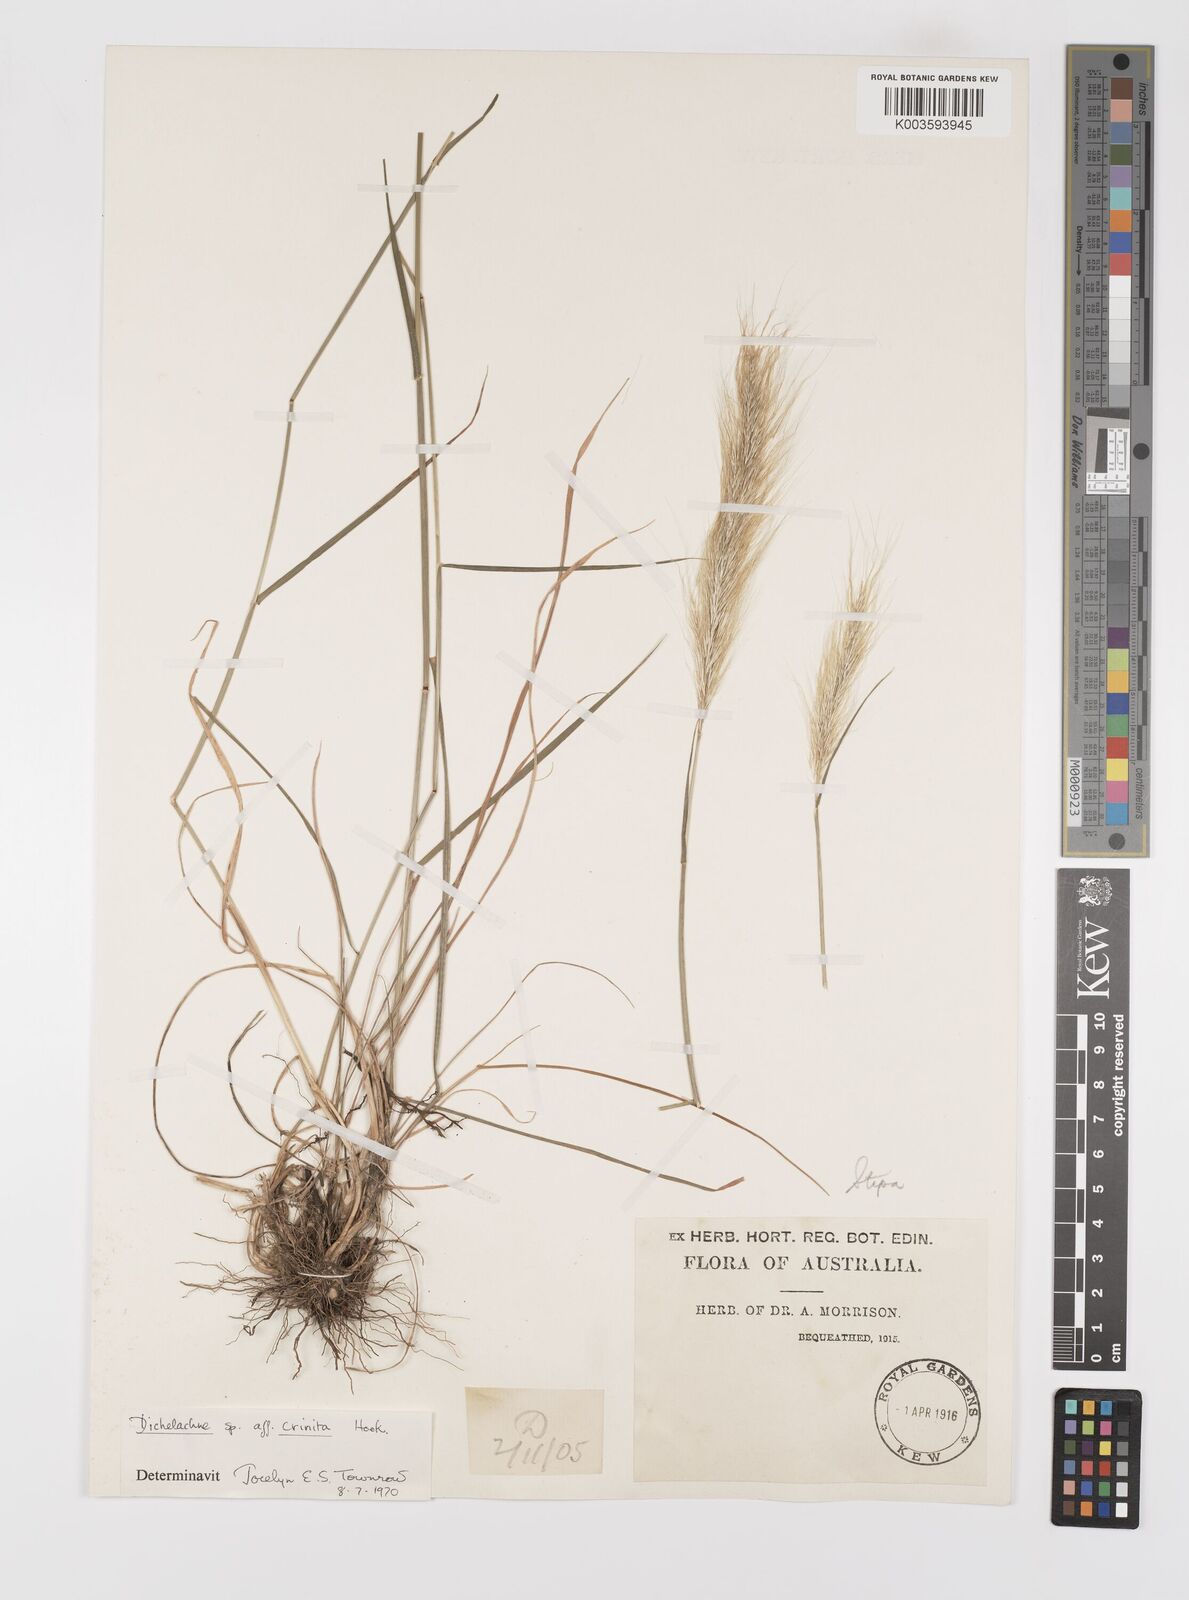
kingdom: Plantae
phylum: Tracheophyta
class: Liliopsida
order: Poales
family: Poaceae
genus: Dichelachne
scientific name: Dichelachne crinita
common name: Clovenfoot plumegrass
